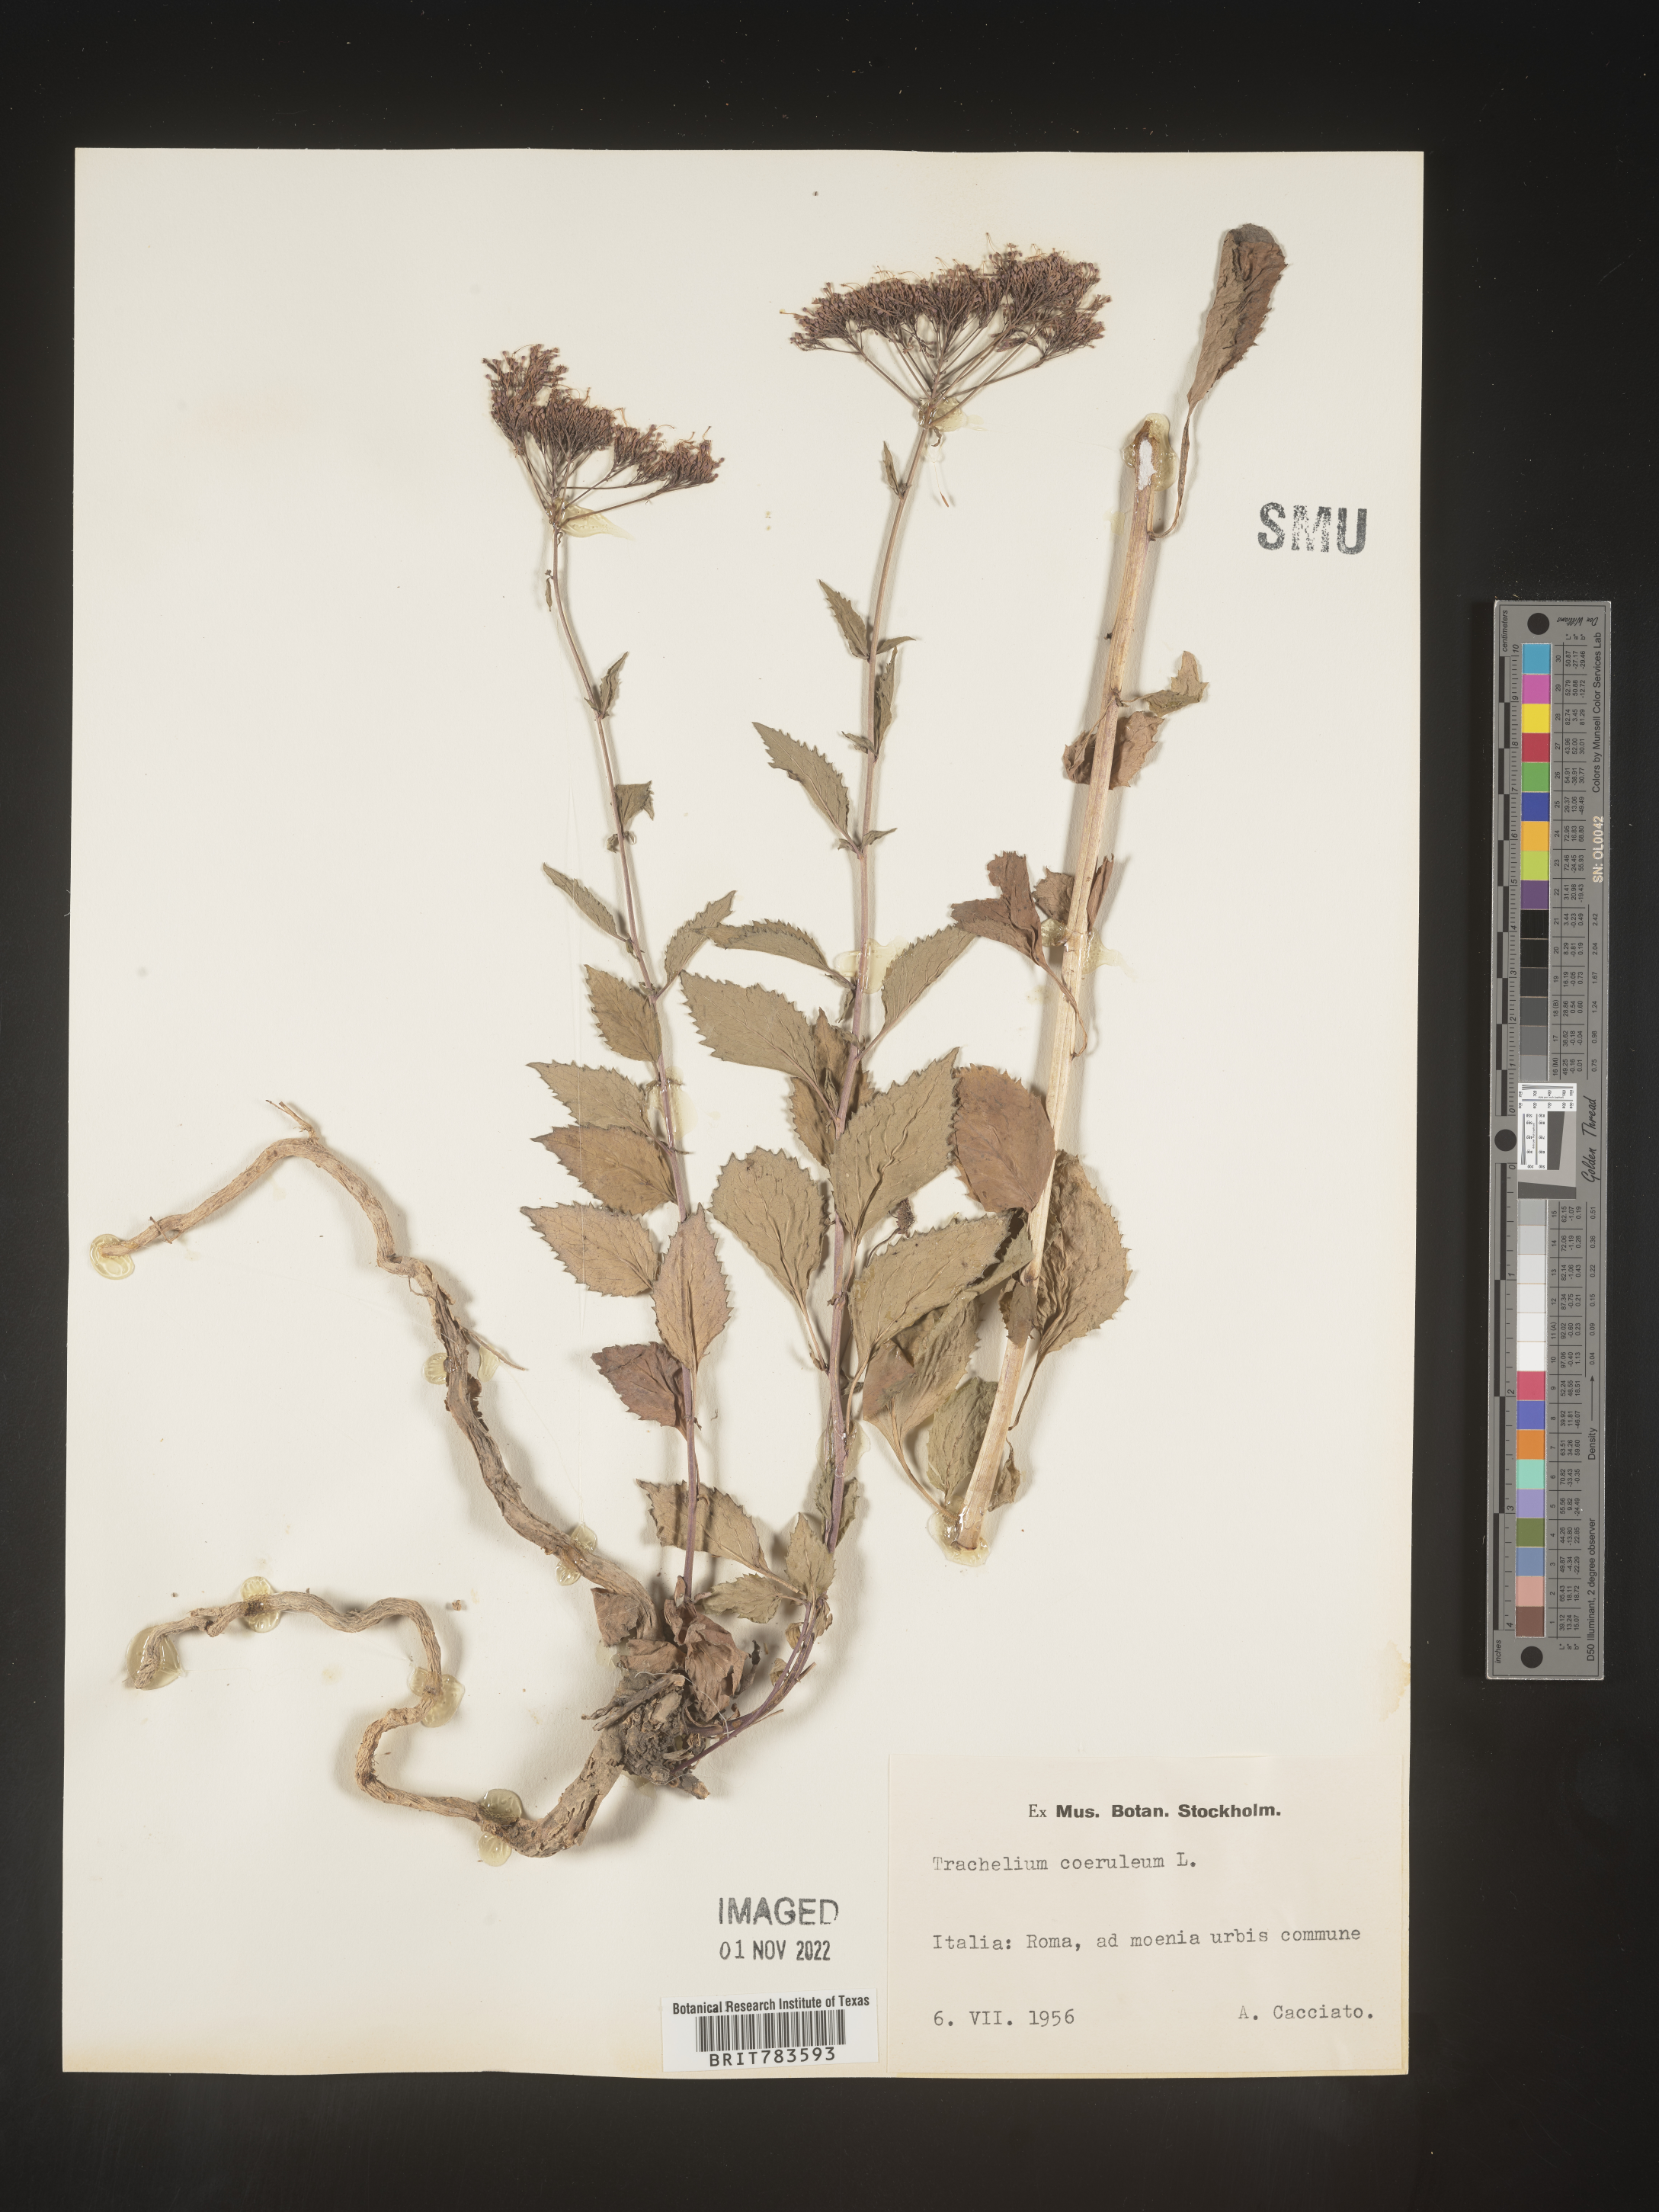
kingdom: Plantae
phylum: Tracheophyta
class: Magnoliopsida
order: Asterales
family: Campanulaceae
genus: Trachelium
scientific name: Trachelium
